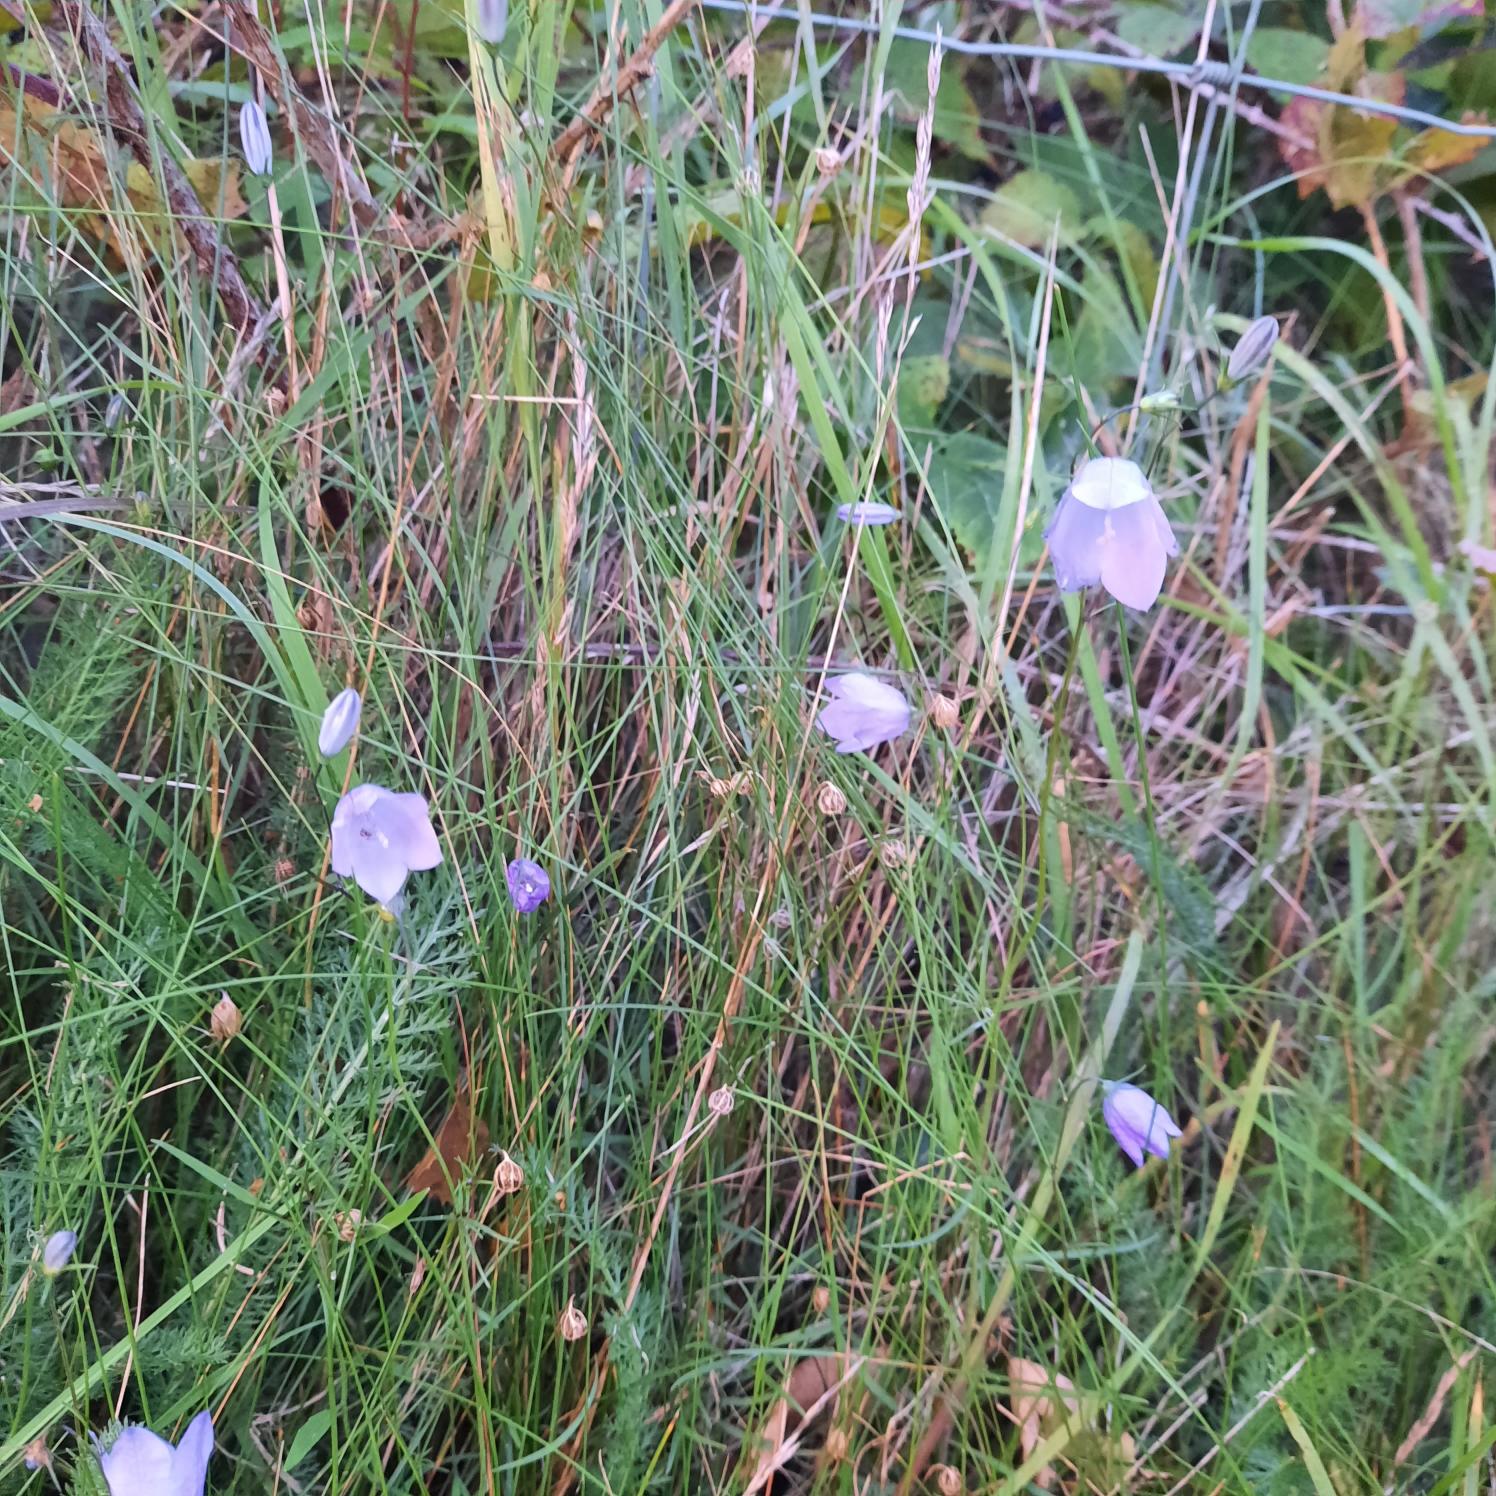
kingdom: Plantae
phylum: Tracheophyta
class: Magnoliopsida
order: Dipsacales
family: Caprifoliaceae
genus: Knautia
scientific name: Knautia arvensis
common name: Blåhat
